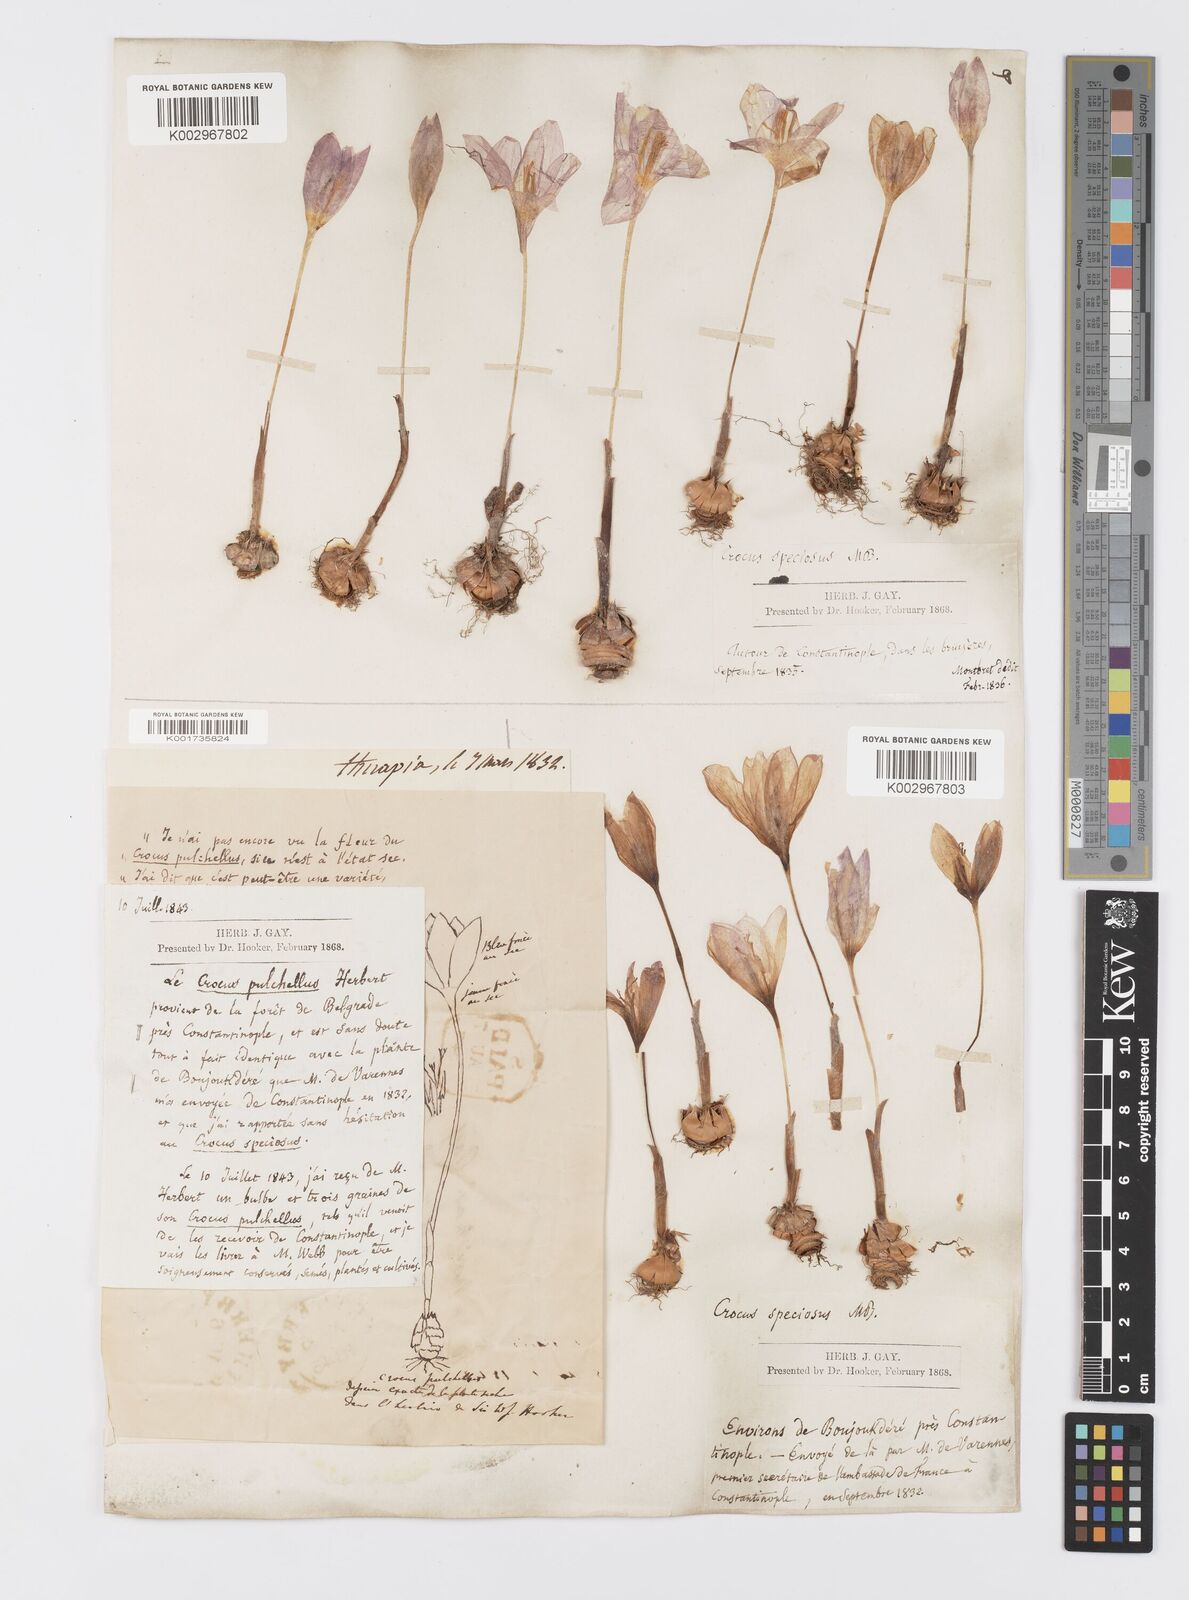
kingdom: Plantae
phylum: Tracheophyta
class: Liliopsida
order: Asparagales
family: Iridaceae
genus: Crocus
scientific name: Crocus pulchellus
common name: Hairy crocus
